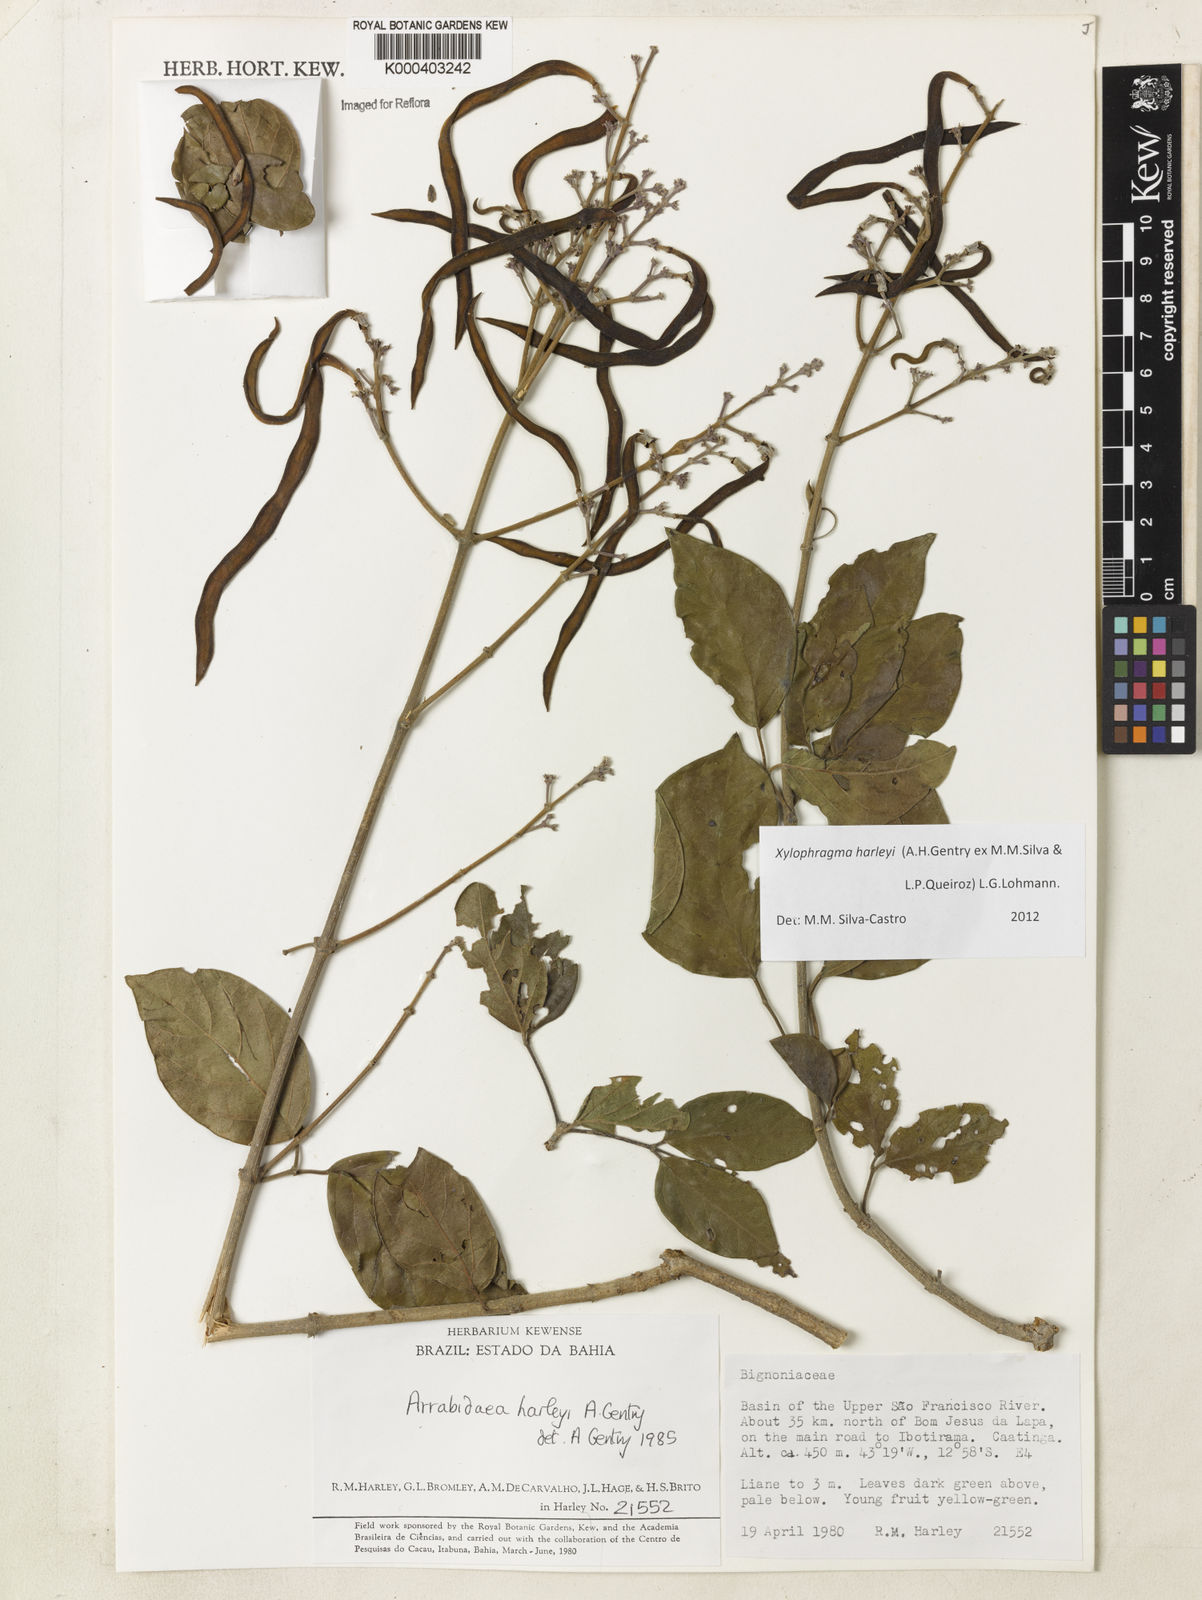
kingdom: Plantae
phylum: Tracheophyta
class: Magnoliopsida
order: Lamiales
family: Bignoniaceae
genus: Xylophragma
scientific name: Xylophragma harleyi
